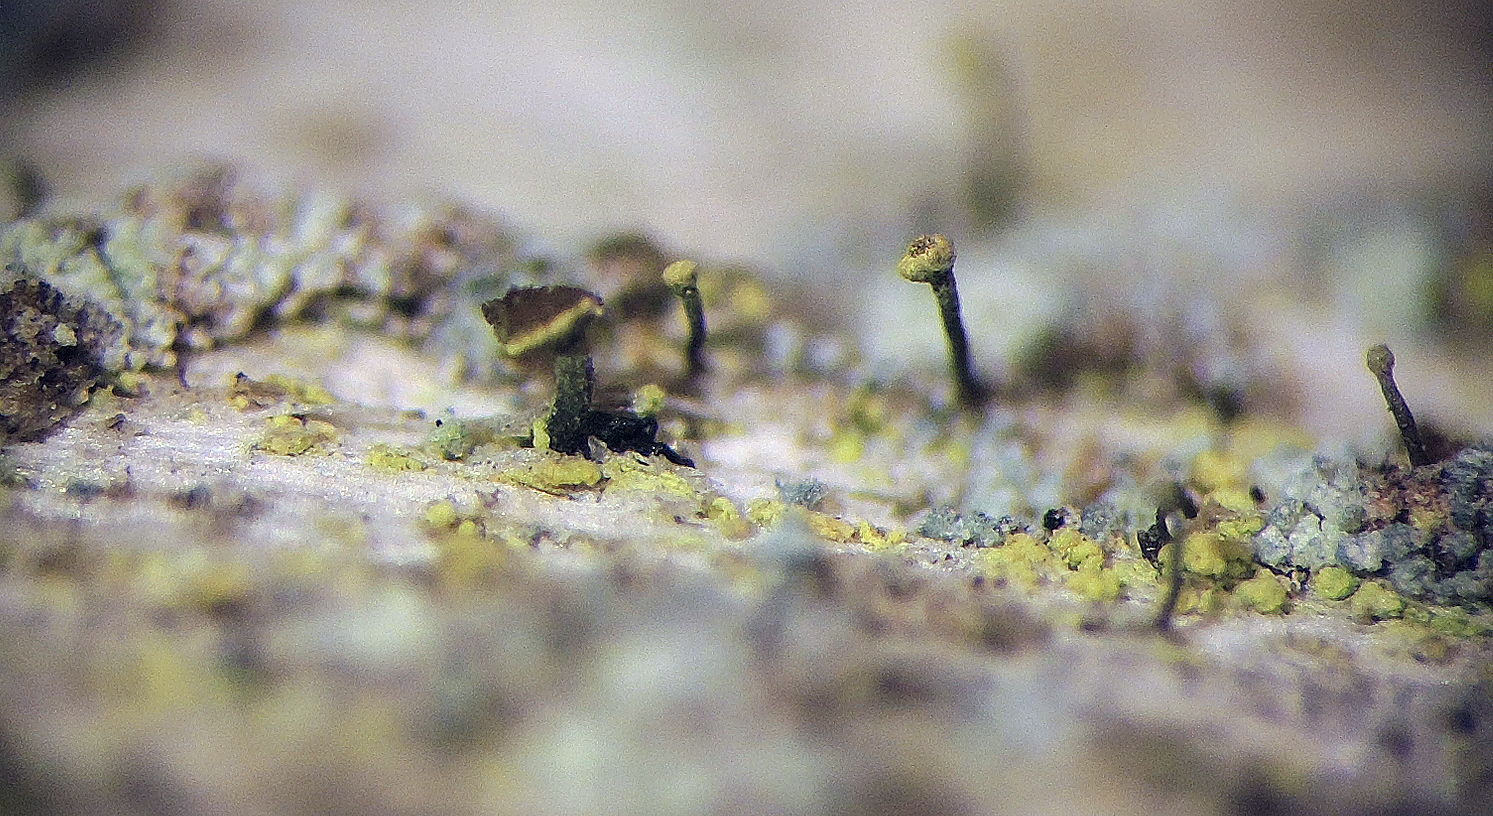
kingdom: Fungi
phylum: Ascomycota
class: Coniocybomycetes
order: Coniocybales
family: Coniocybaceae
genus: Chaenotheca
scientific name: Chaenotheca chrysocephala
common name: citrongul knappenålslav
